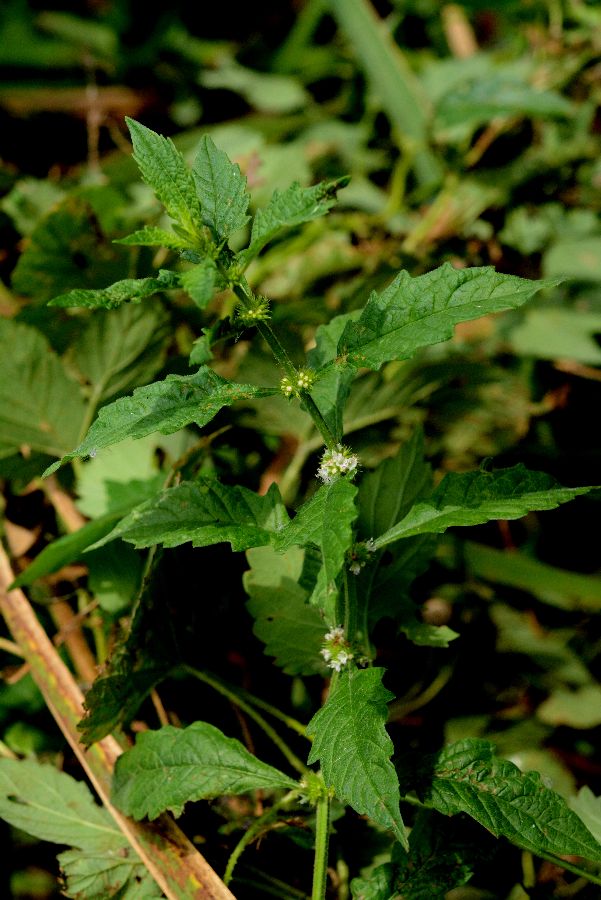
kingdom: Plantae
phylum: Tracheophyta
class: Magnoliopsida
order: Lamiales
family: Lamiaceae
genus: Lycopus
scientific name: Lycopus europaeus
